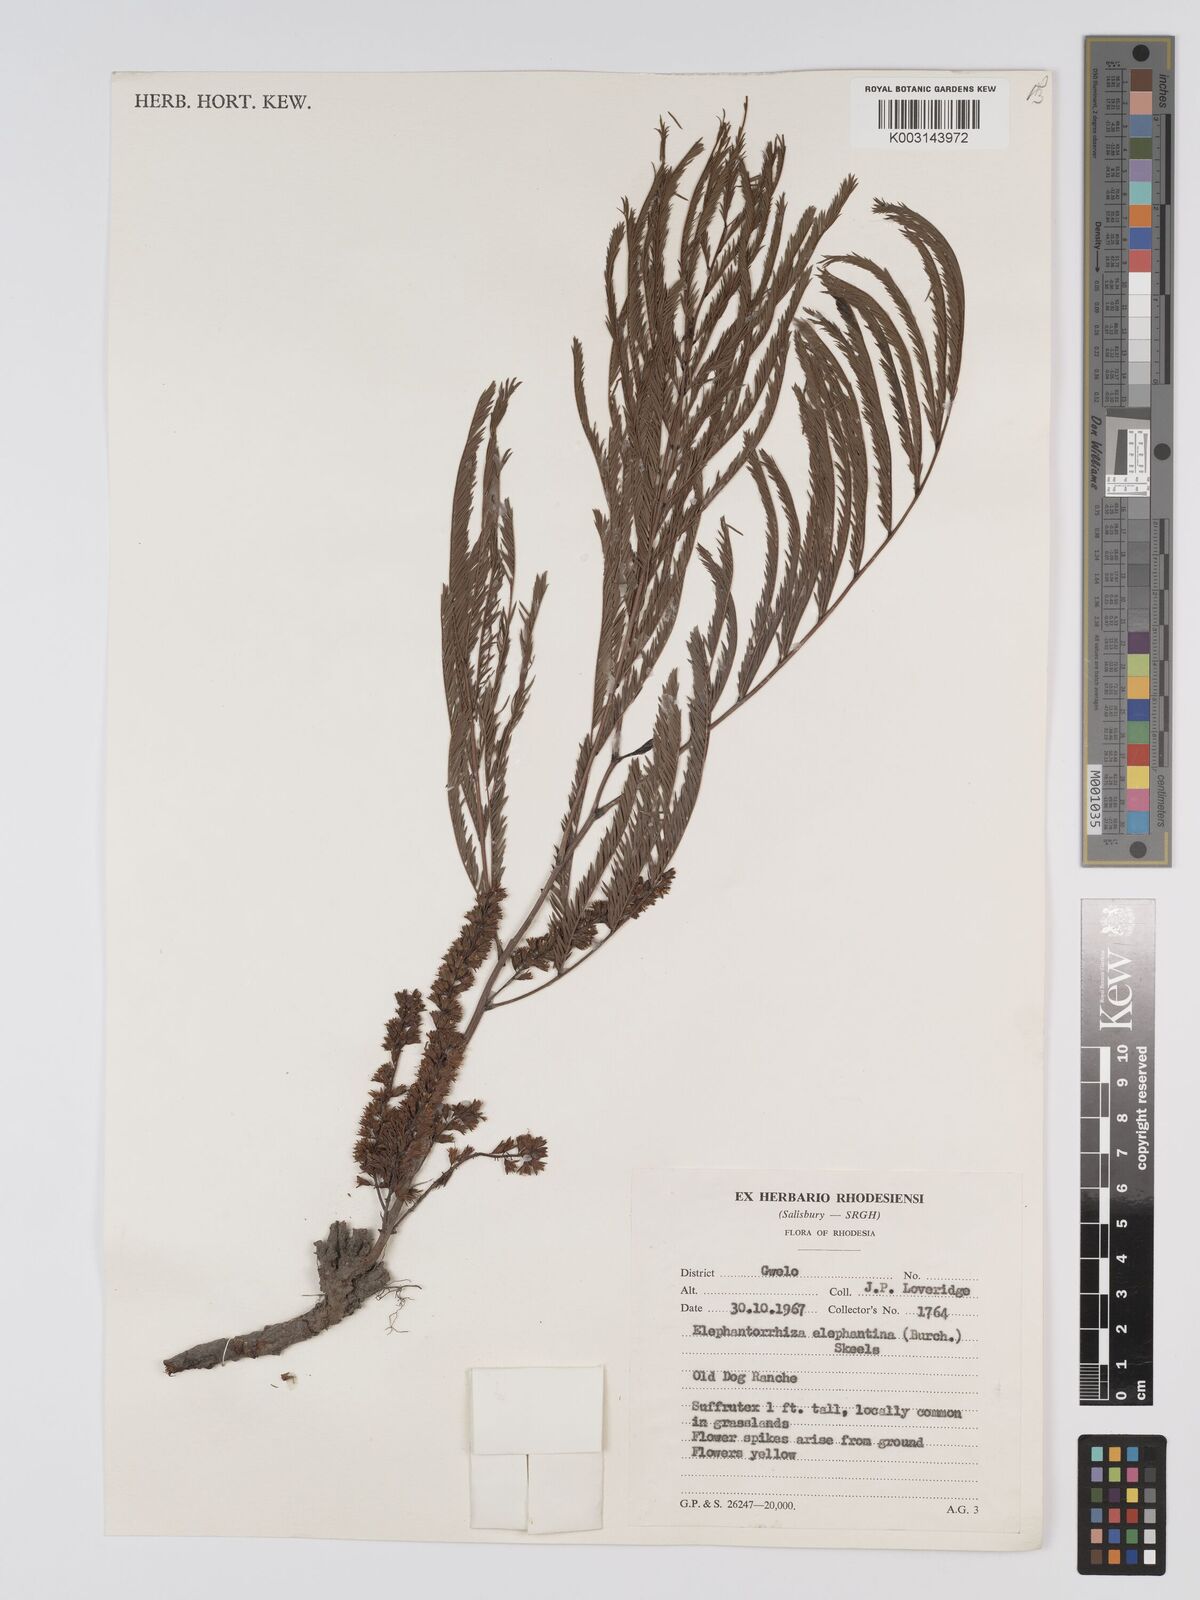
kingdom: Plantae
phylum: Tracheophyta
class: Magnoliopsida
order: Fabales
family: Fabaceae
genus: Elephantorrhiza
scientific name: Elephantorrhiza elephantina
